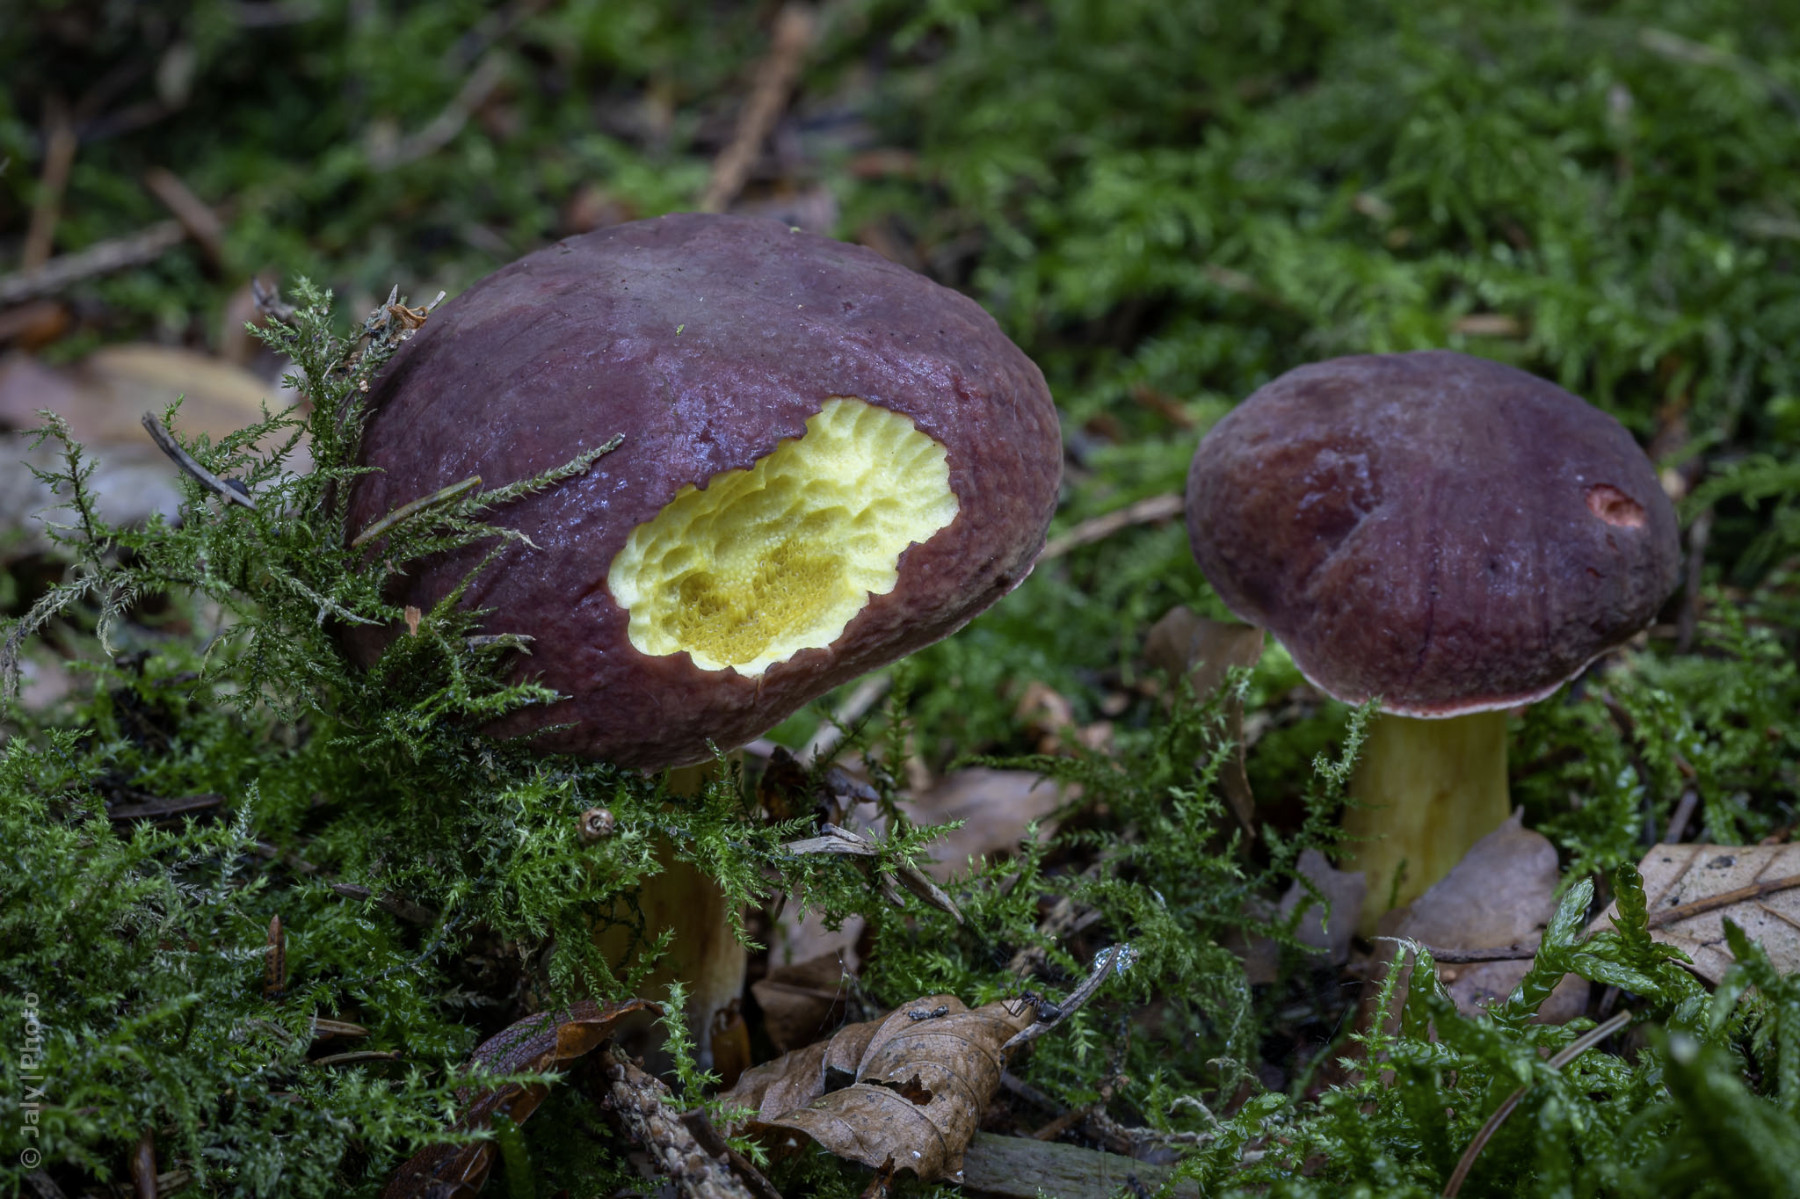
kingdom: Fungi
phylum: Basidiomycota
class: Agaricomycetes
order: Boletales
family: Boletaceae
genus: Xerocomellus
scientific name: Xerocomellus pruinatus
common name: dugget rørhat
